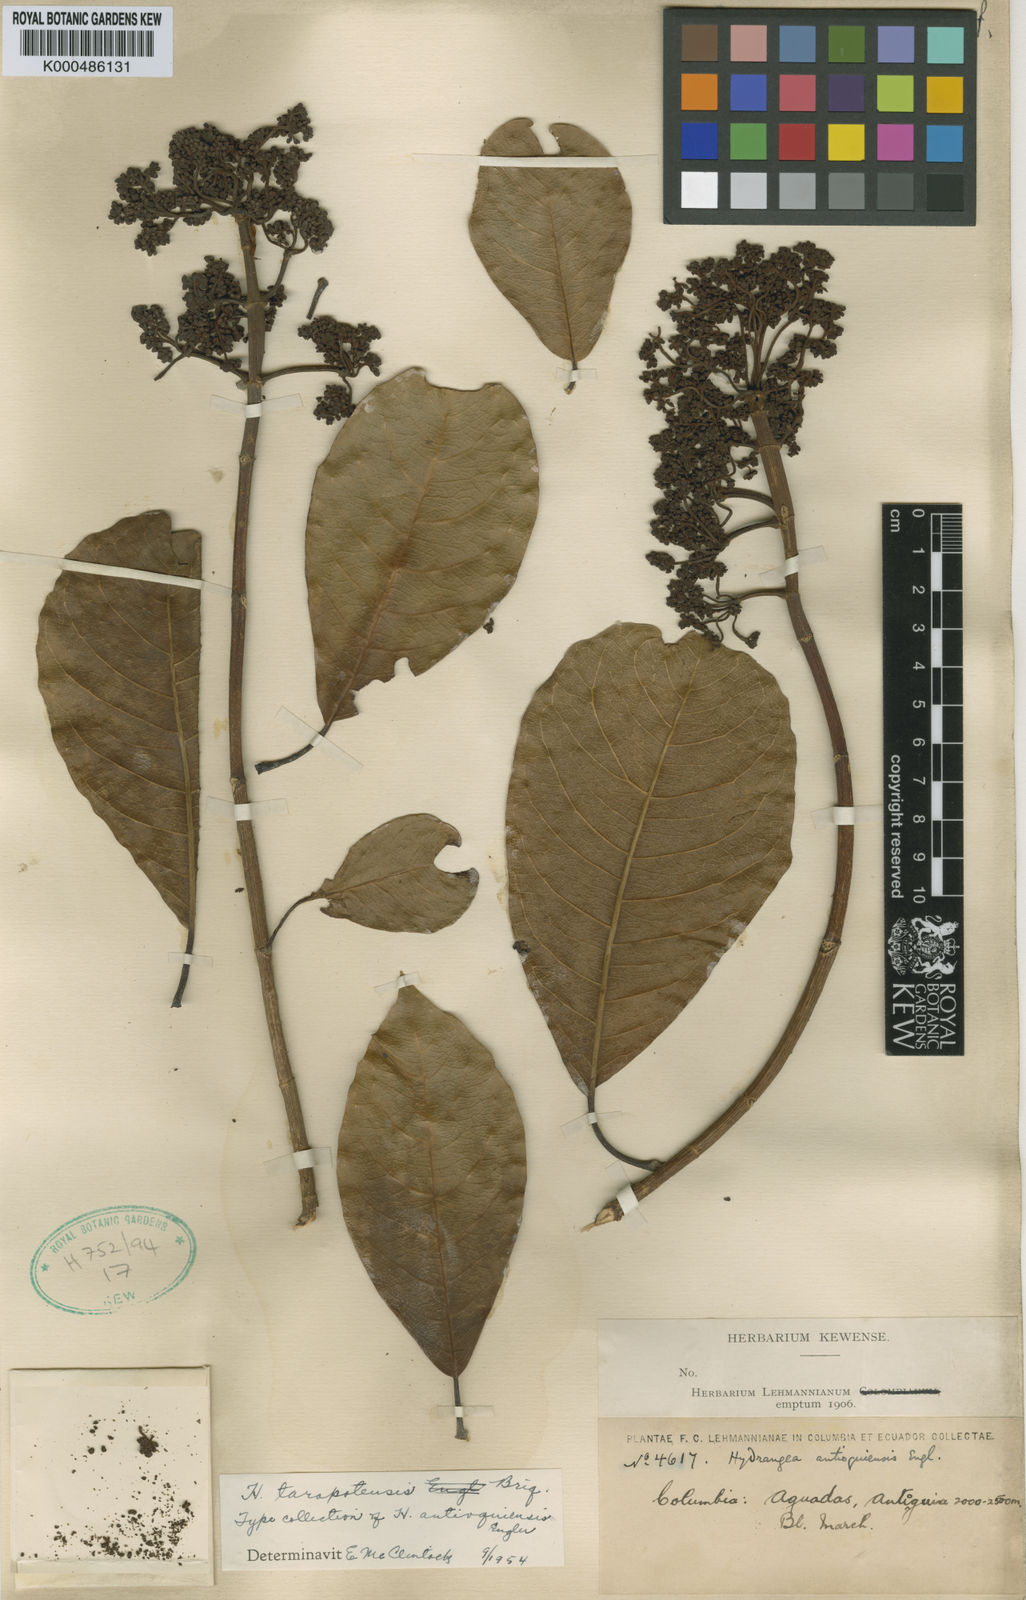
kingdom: Plantae
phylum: Tracheophyta
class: Magnoliopsida
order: Cornales
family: Hydrangeaceae
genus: Hydrangea
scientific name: Hydrangea tarapotensis
